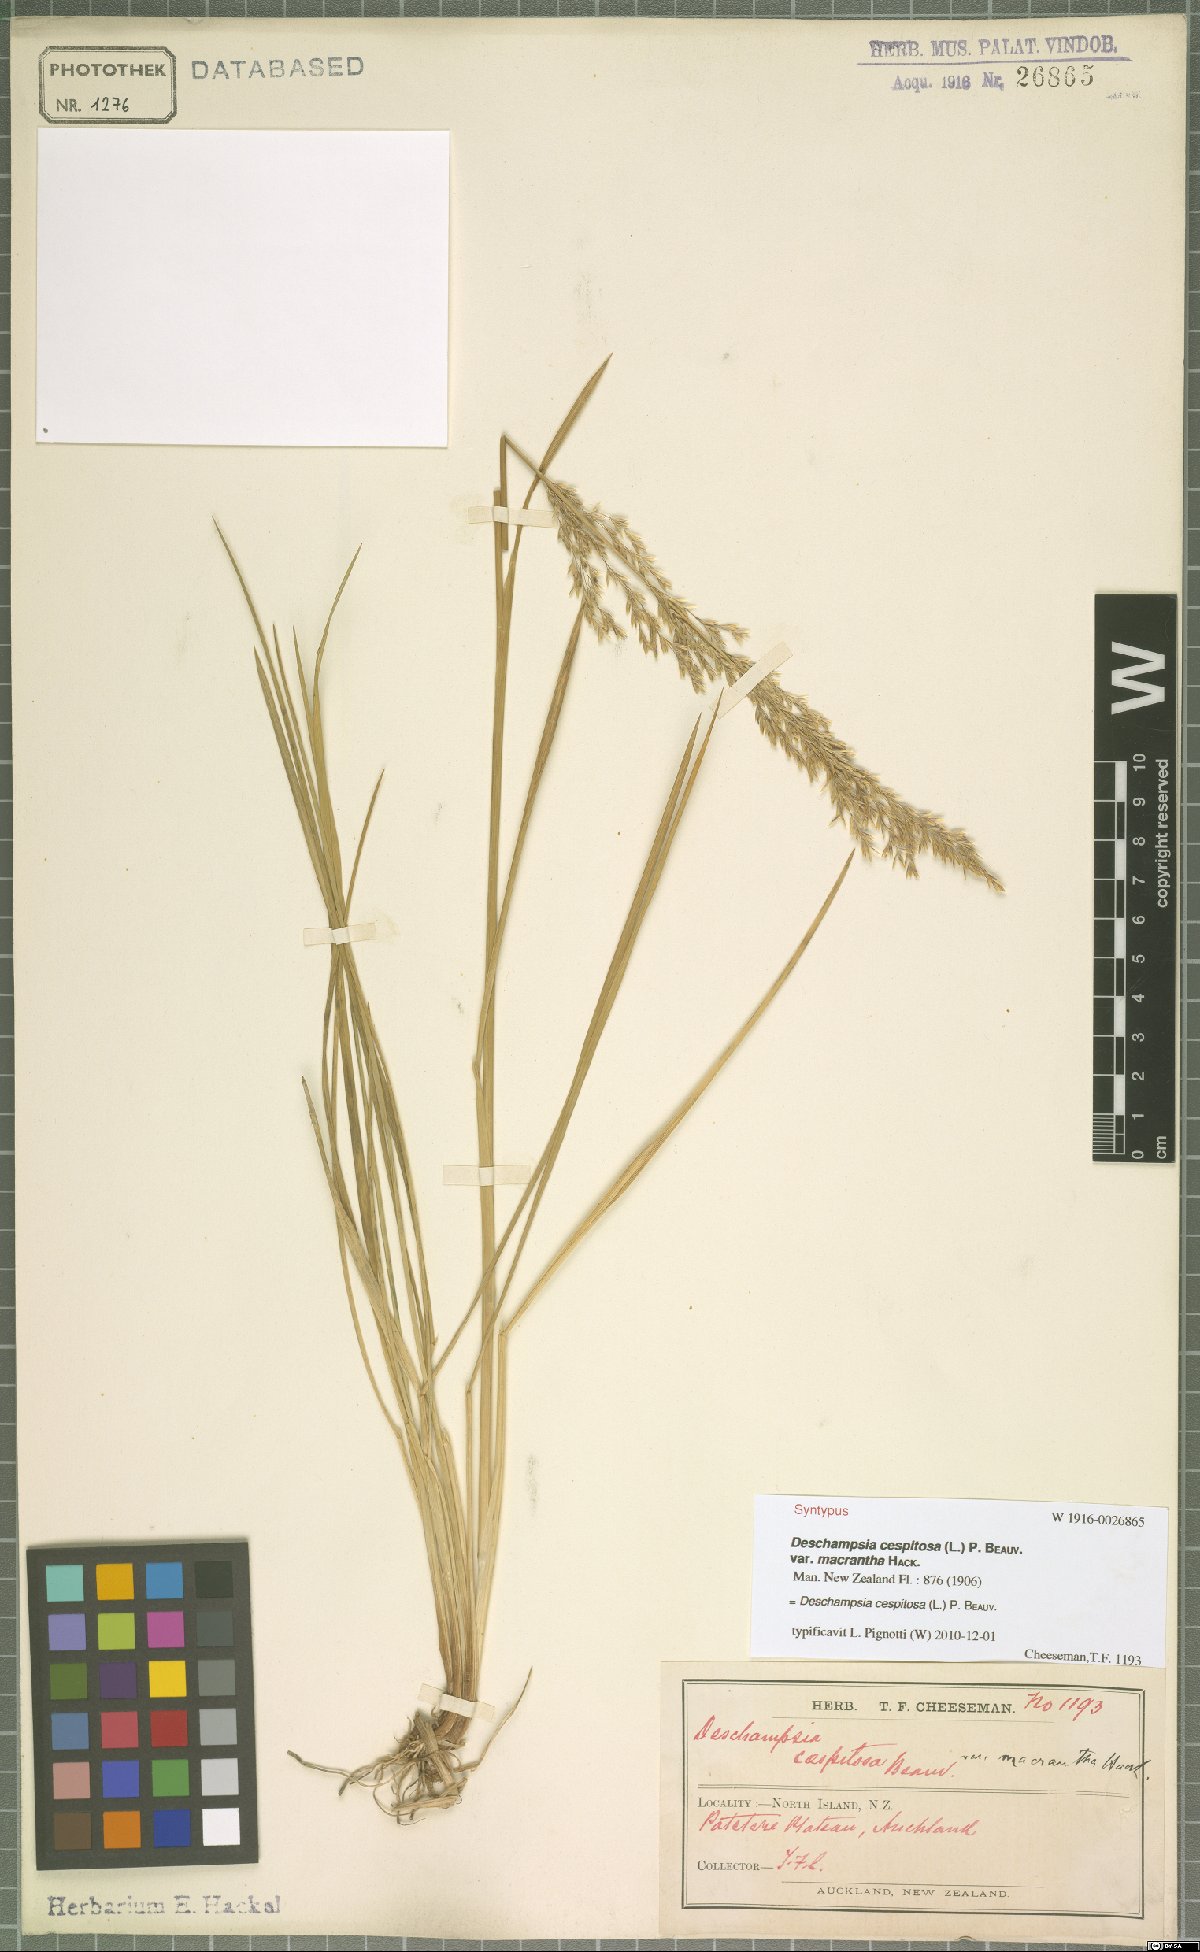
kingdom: Plantae
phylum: Tracheophyta
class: Liliopsida
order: Poales
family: Poaceae
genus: Deschampsia
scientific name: Deschampsia cespitosa
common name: Tufted hair-grass
